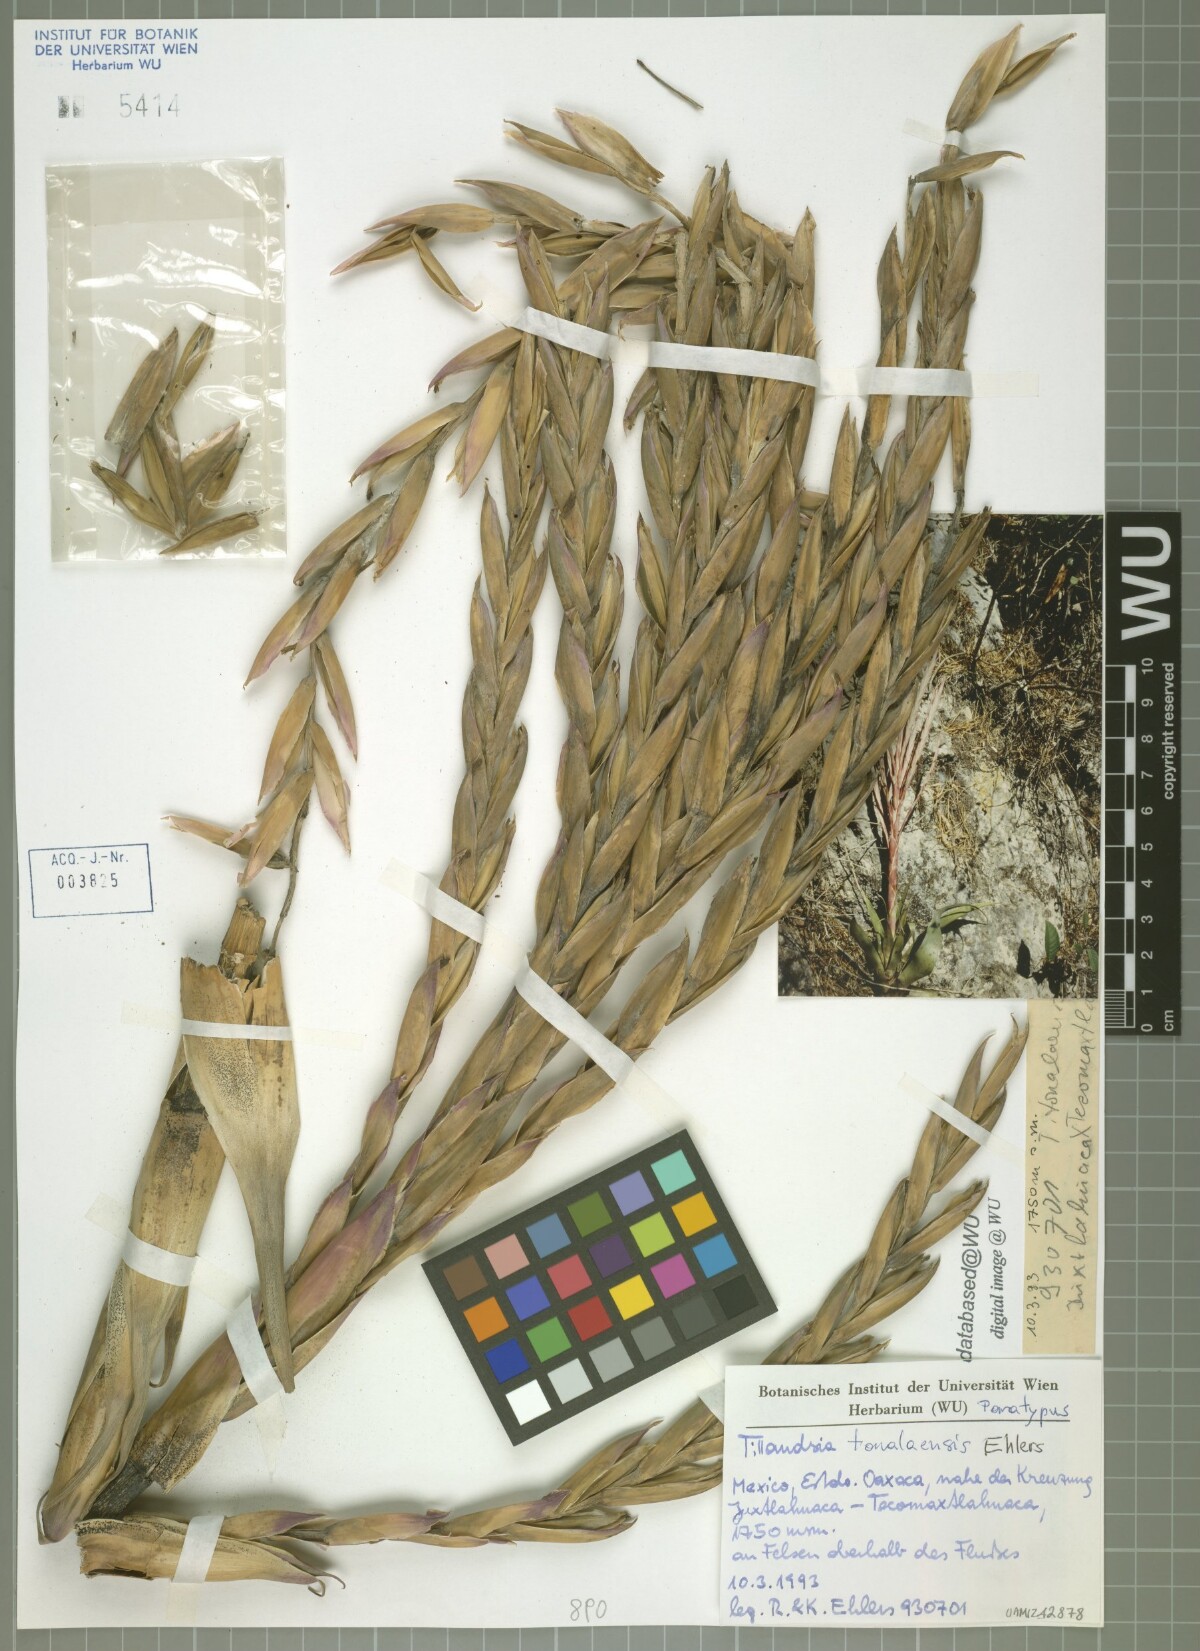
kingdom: Plantae
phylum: Tracheophyta
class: Liliopsida
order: Poales
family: Bromeliaceae
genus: Tillandsia
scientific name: Tillandsia tonalaensis
